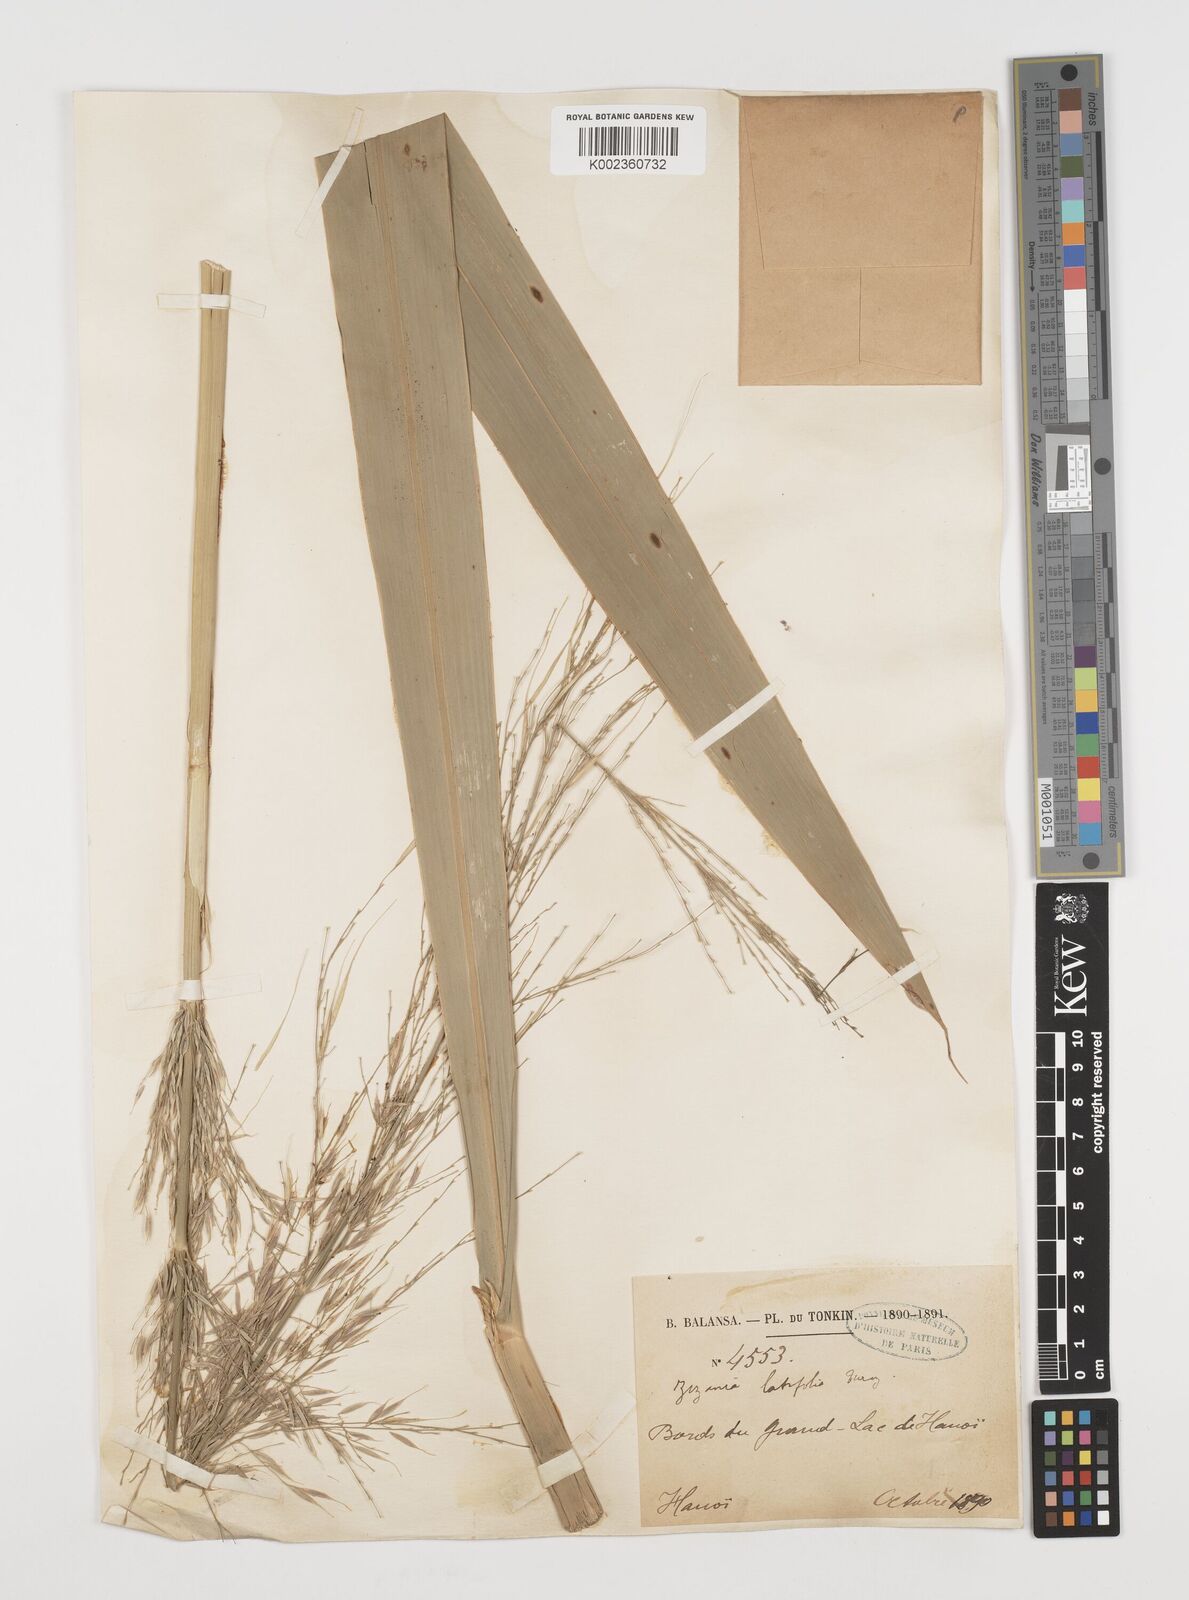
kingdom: Plantae
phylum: Tracheophyta
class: Liliopsida
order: Poales
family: Poaceae
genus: Zizania
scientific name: Zizania latifolia
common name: Manchurian wildrice
